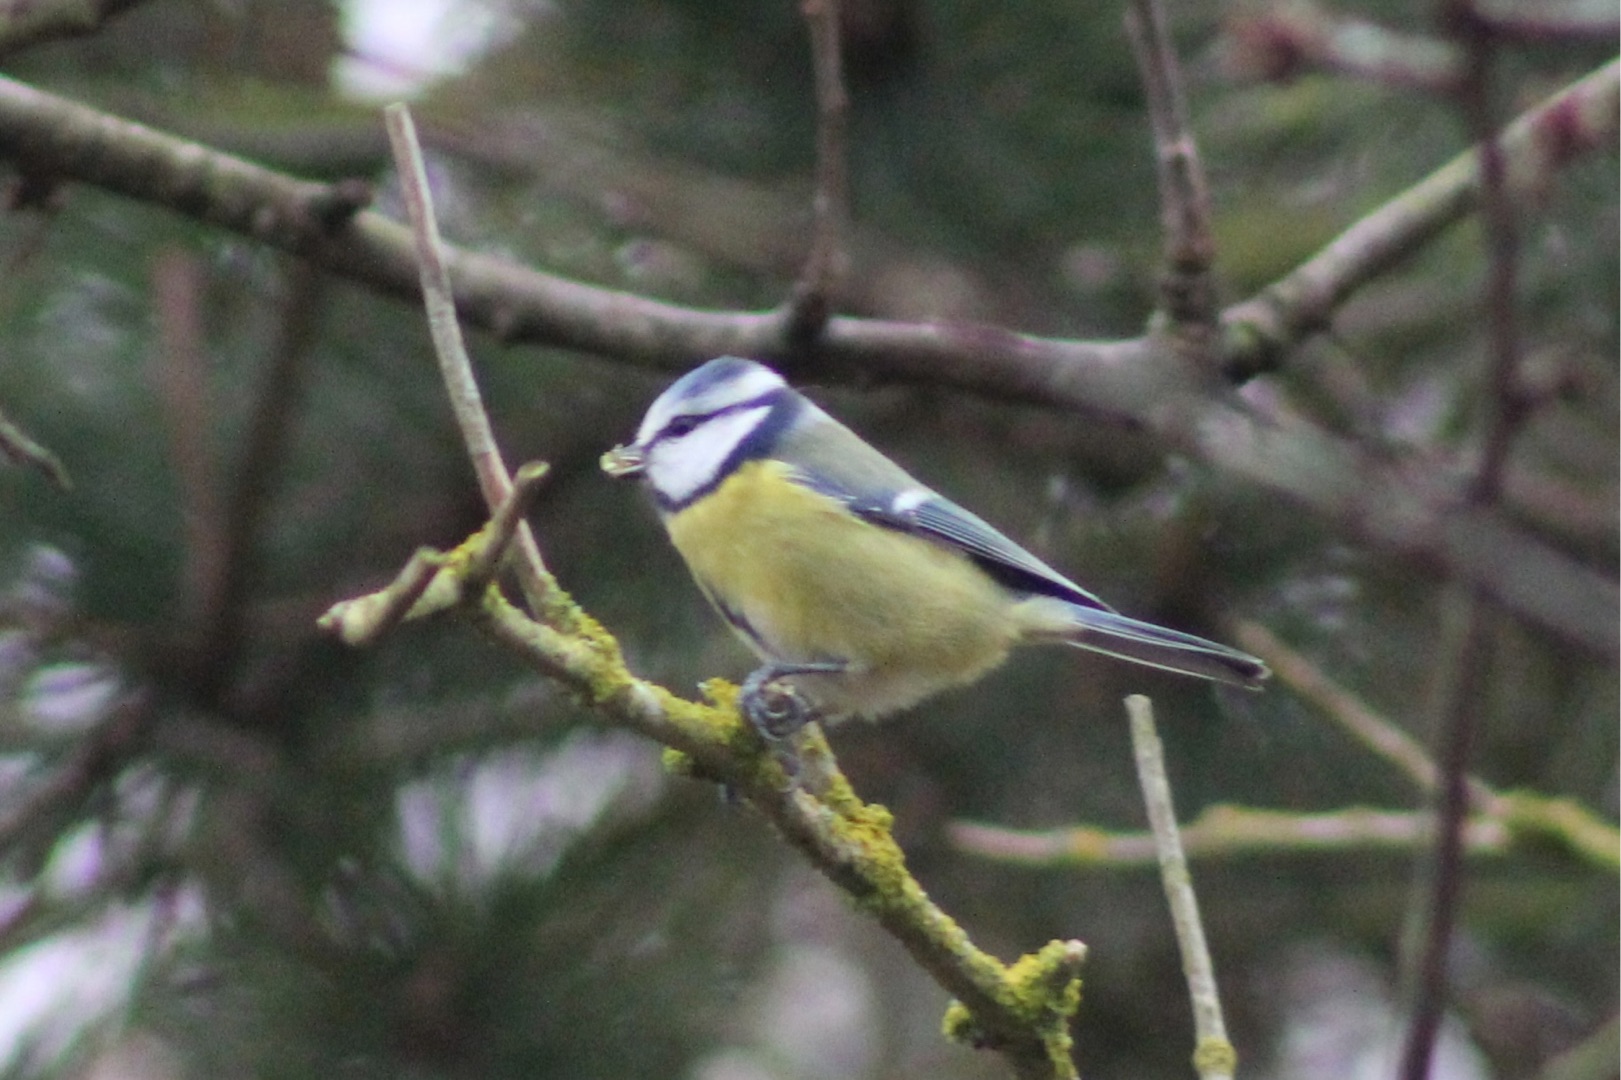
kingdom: Animalia
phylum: Chordata
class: Aves
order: Passeriformes
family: Paridae
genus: Cyanistes
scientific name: Cyanistes caeruleus
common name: Blåmejse
